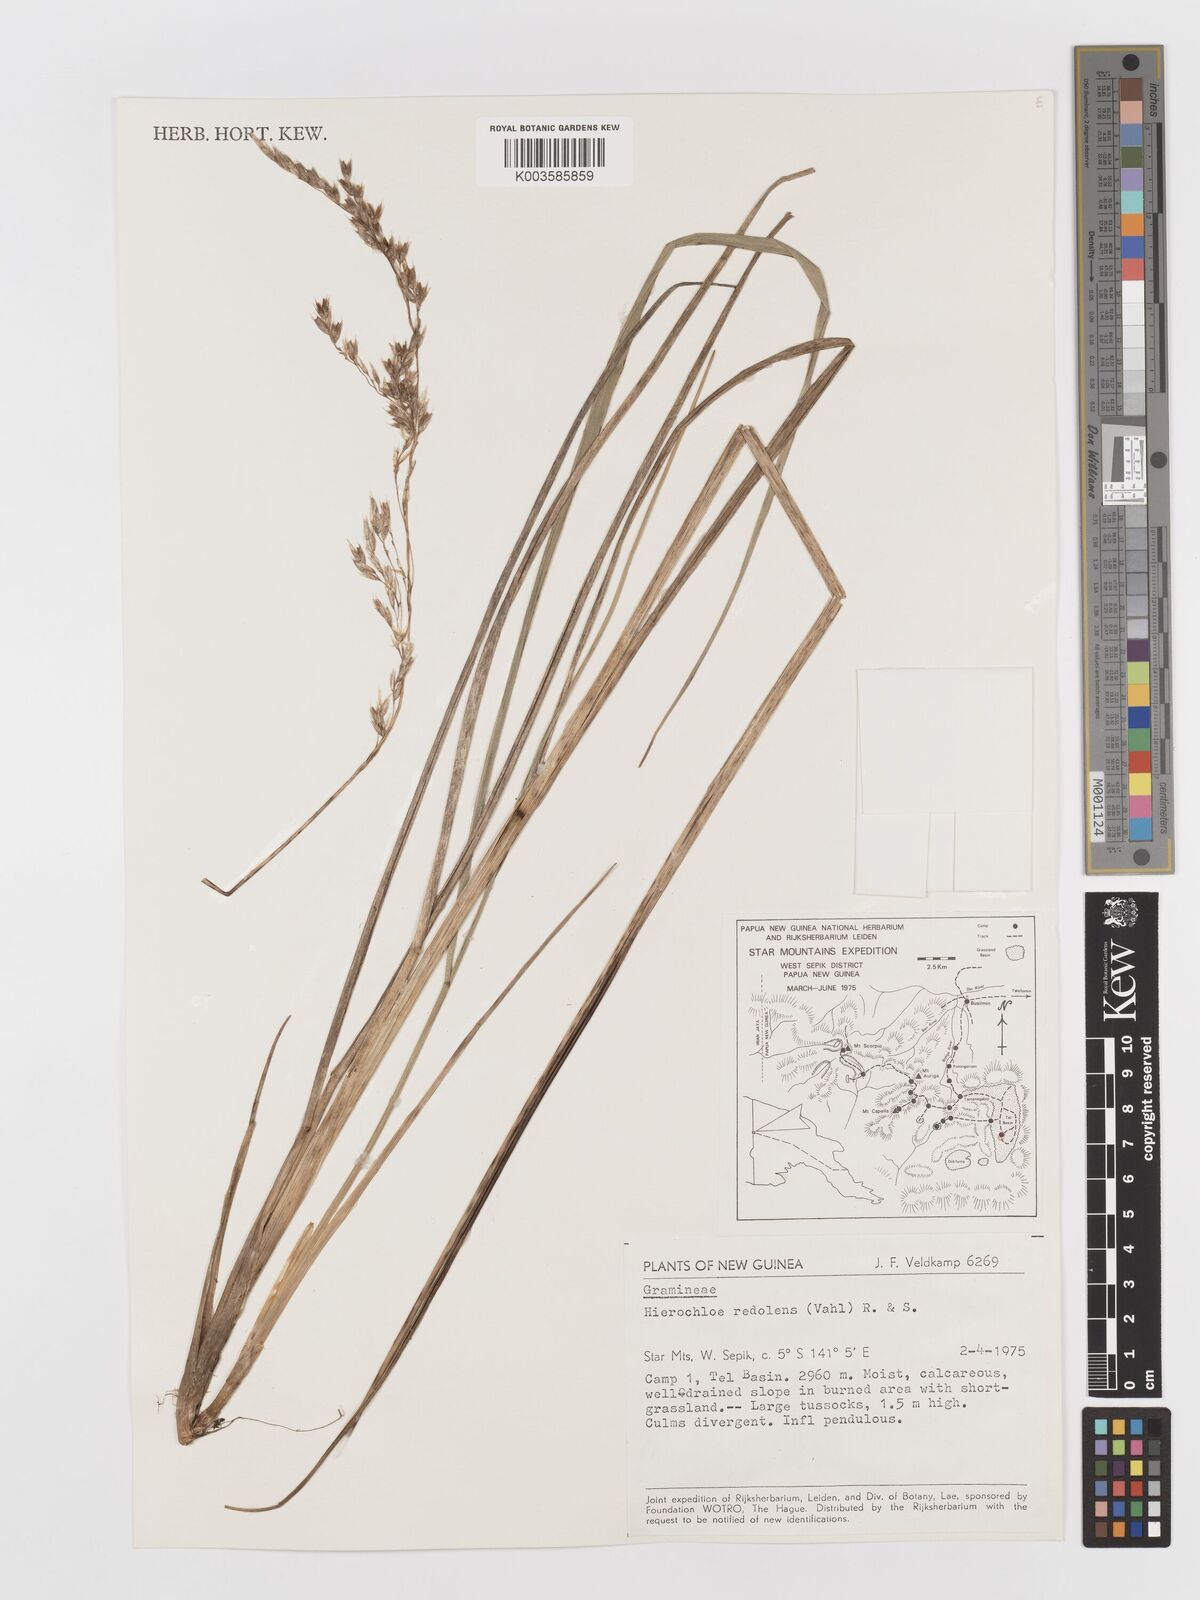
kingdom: Plantae
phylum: Tracheophyta
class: Liliopsida
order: Poales
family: Poaceae
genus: Anthoxanthum
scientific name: Anthoxanthum redolens
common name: Sweet holy grass
